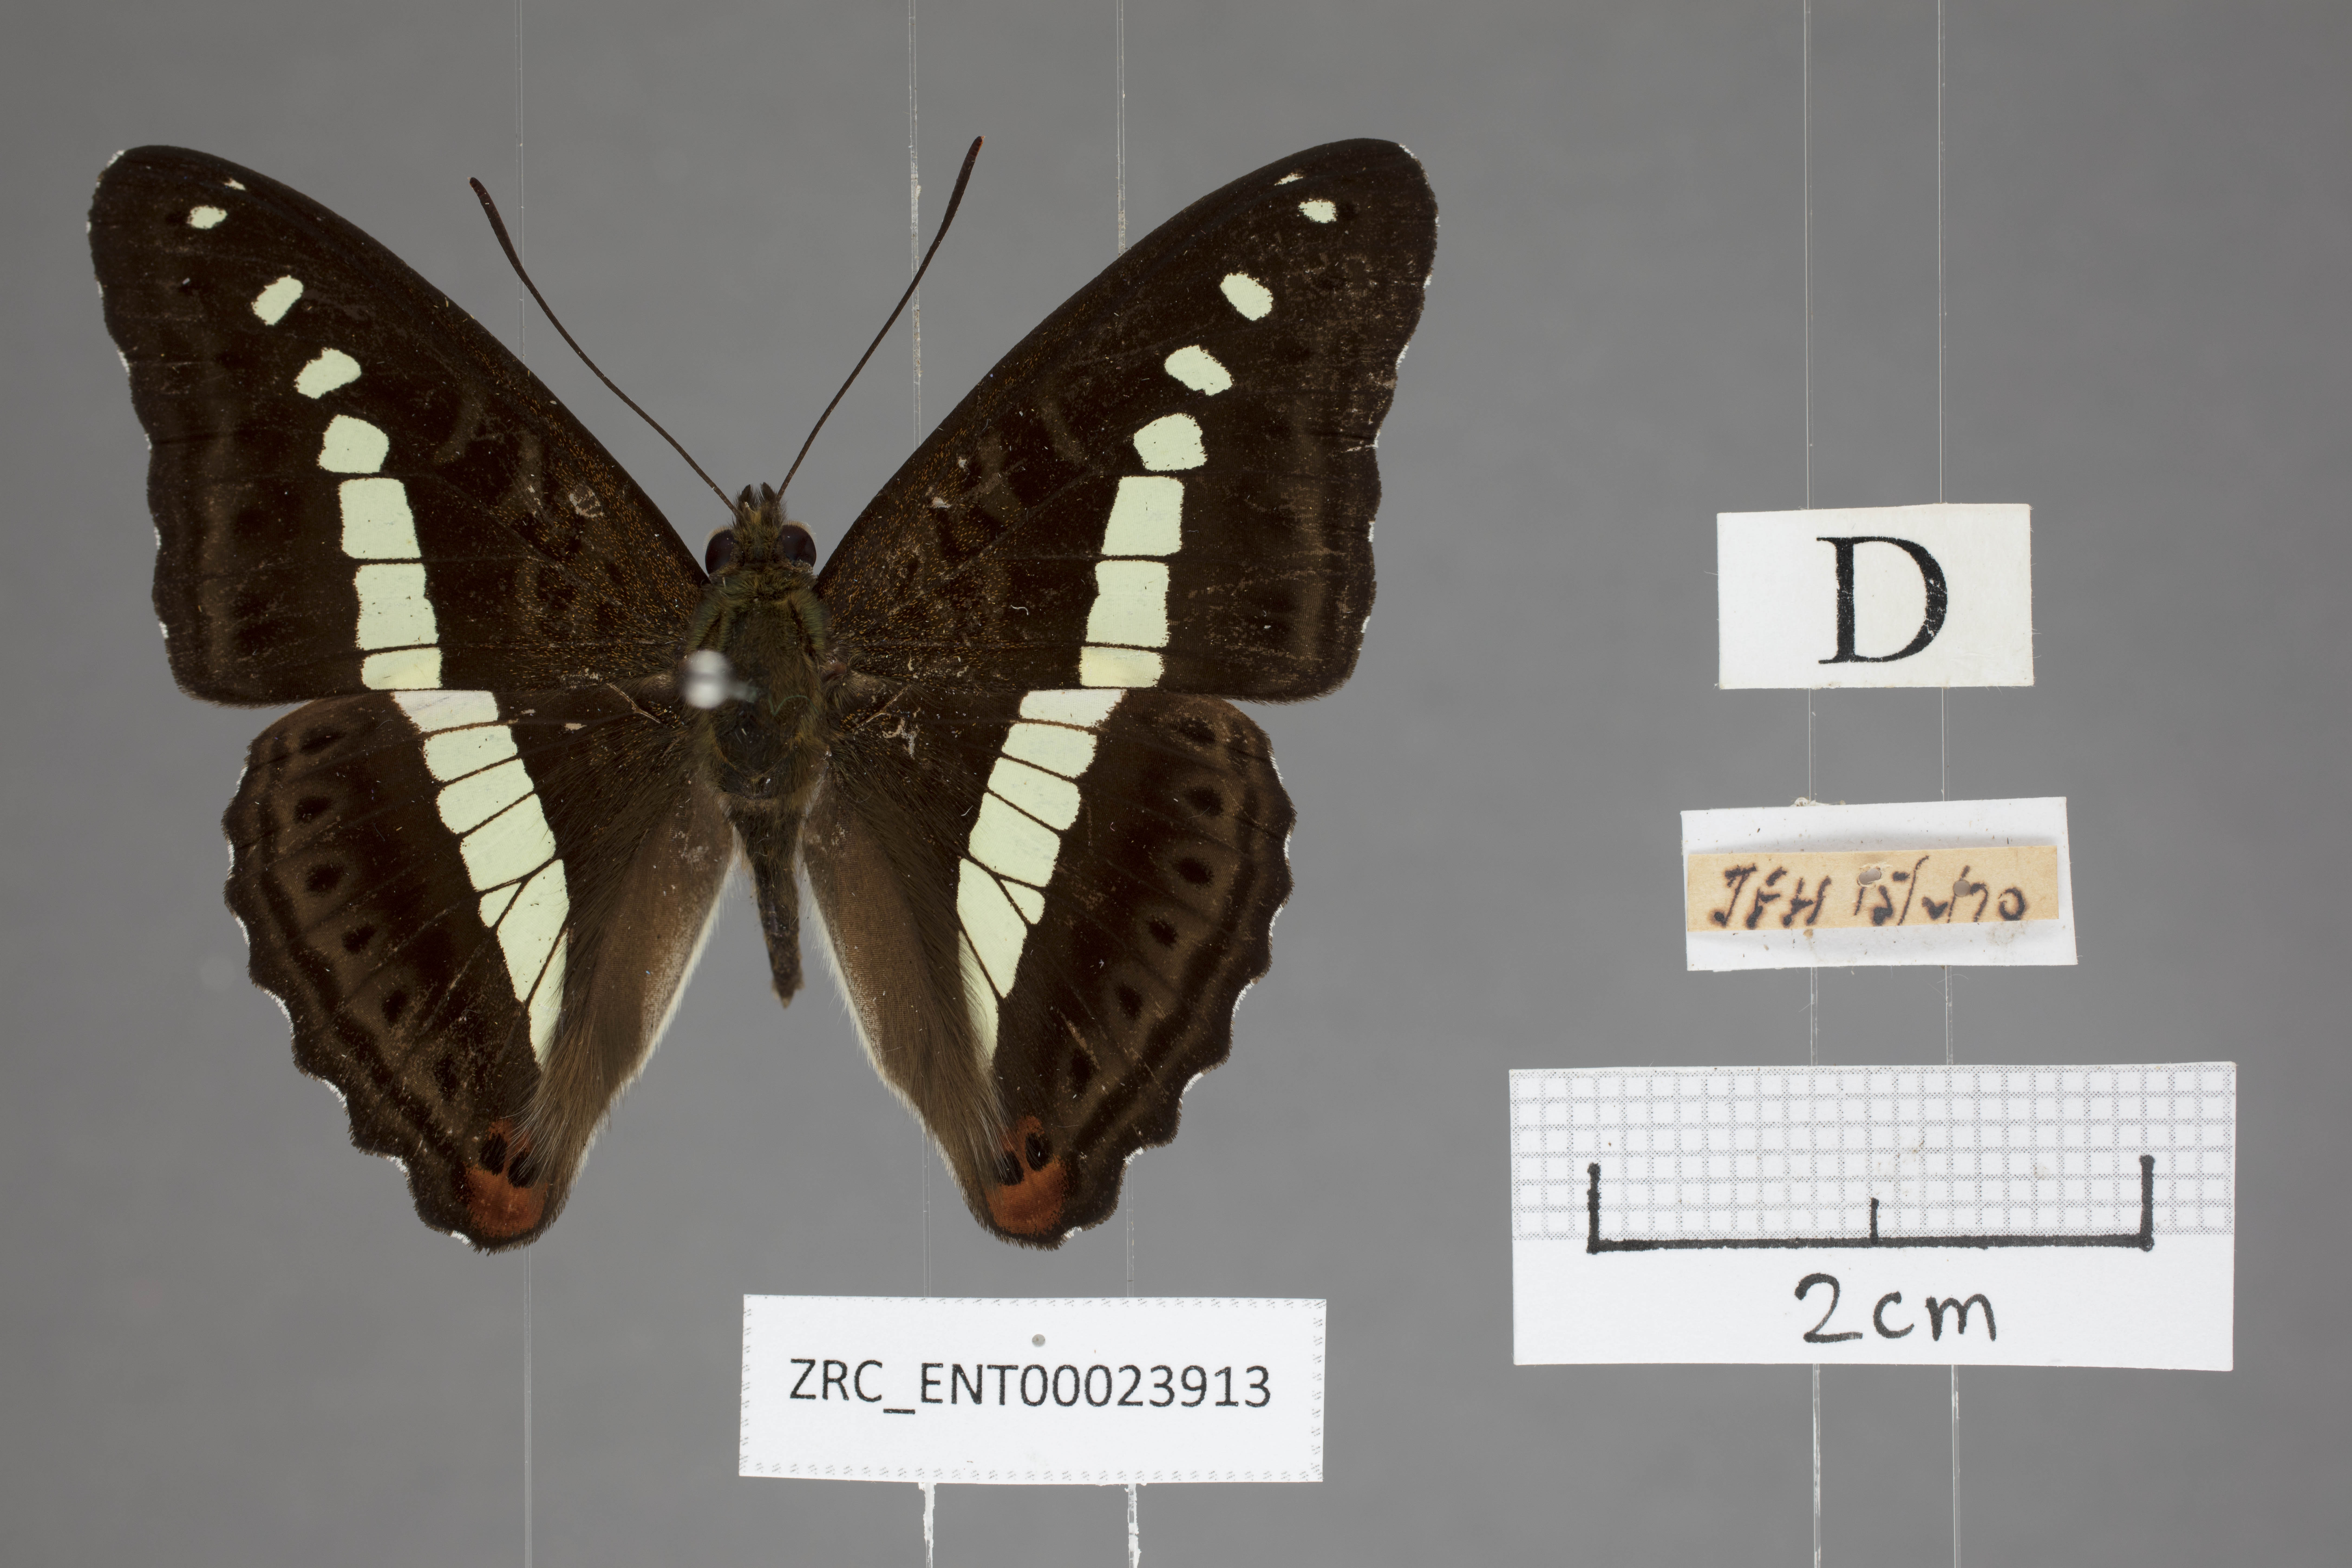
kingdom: Animalia
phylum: Arthropoda
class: Insecta
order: Lepidoptera
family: Nymphalidae
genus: Limenitis
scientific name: Limenitis Sumalia daraxa
